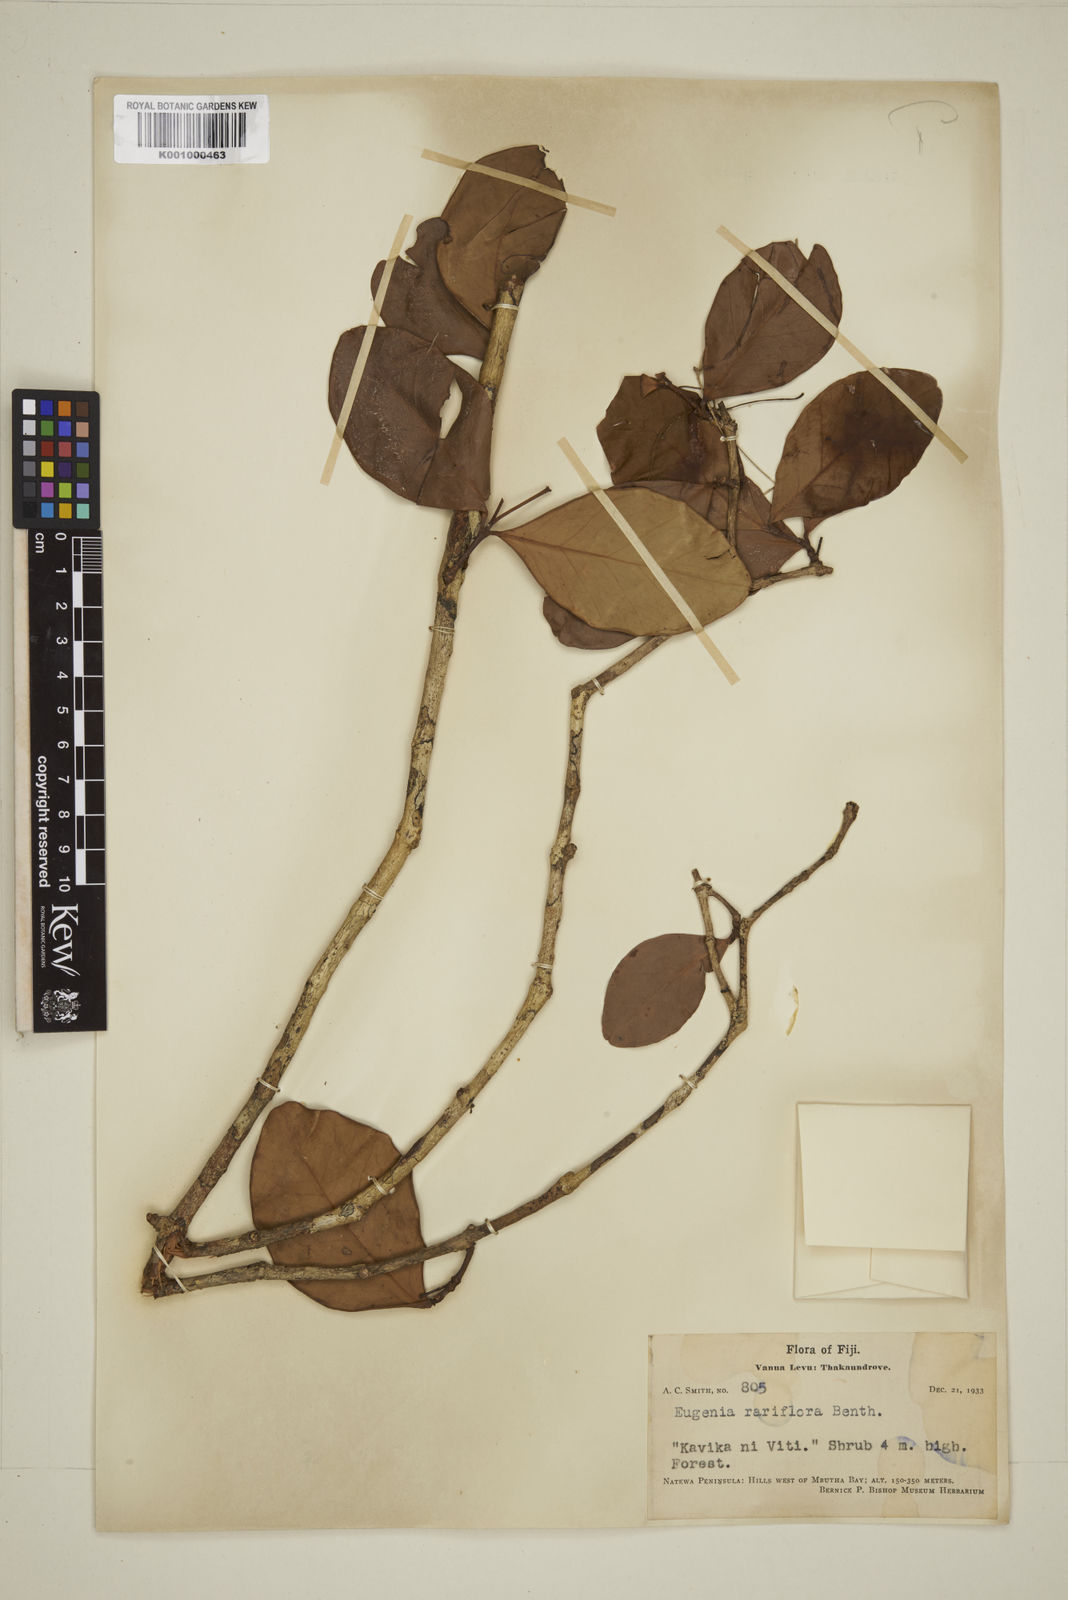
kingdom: Plantae
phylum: Tracheophyta
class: Magnoliopsida
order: Myrtales
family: Myrtaceae
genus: Eugenia
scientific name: Eugenia reinwardtiana
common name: Cedar bay-cherry
